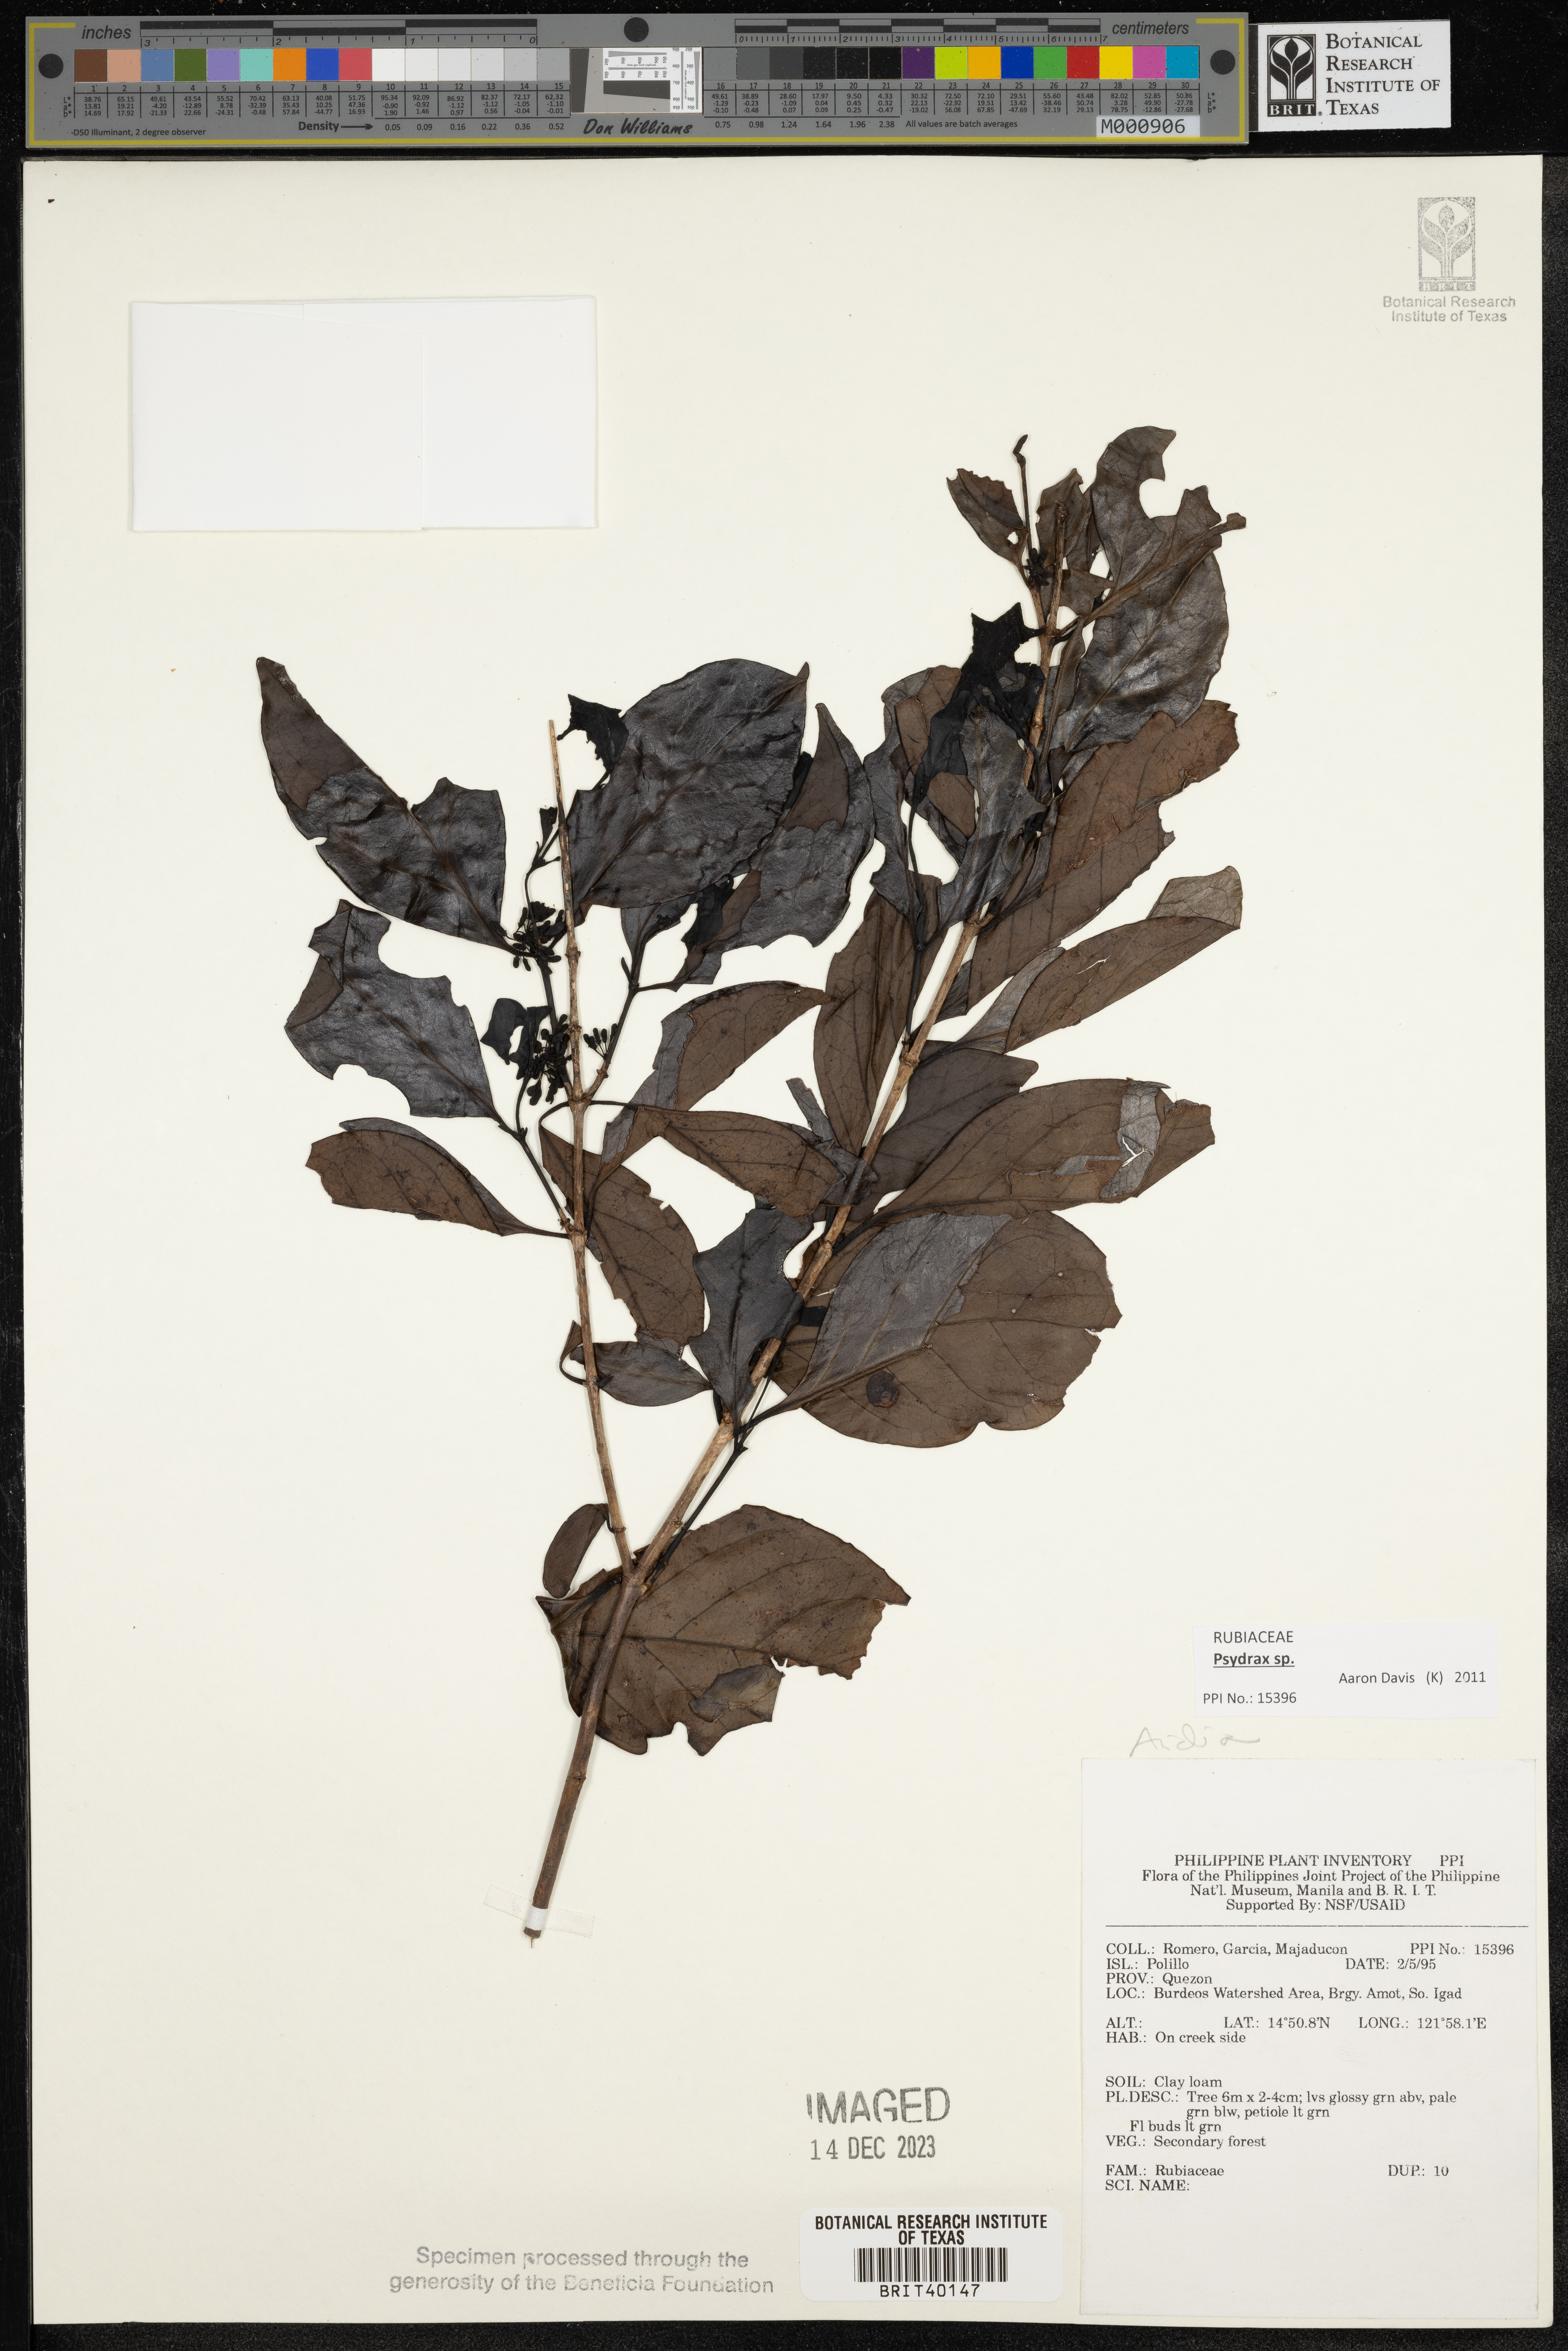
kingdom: Plantae
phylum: Tracheophyta
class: Magnoliopsida
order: Gentianales
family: Rubiaceae
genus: Aidia
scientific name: Aidia
